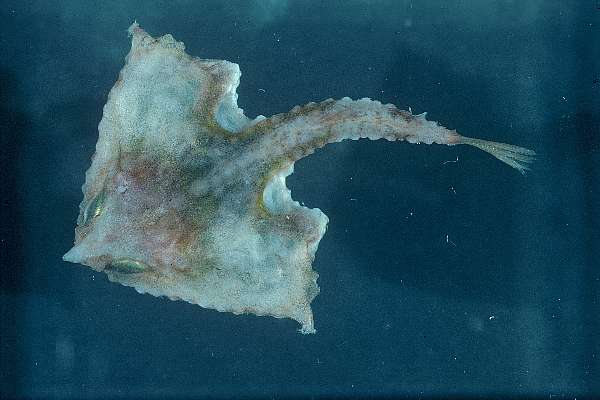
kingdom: Animalia
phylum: Chordata
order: Lophiiformes
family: Ogcocephalidae
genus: Malthopsis
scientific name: Malthopsis mitrigera
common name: Twospine batfish
